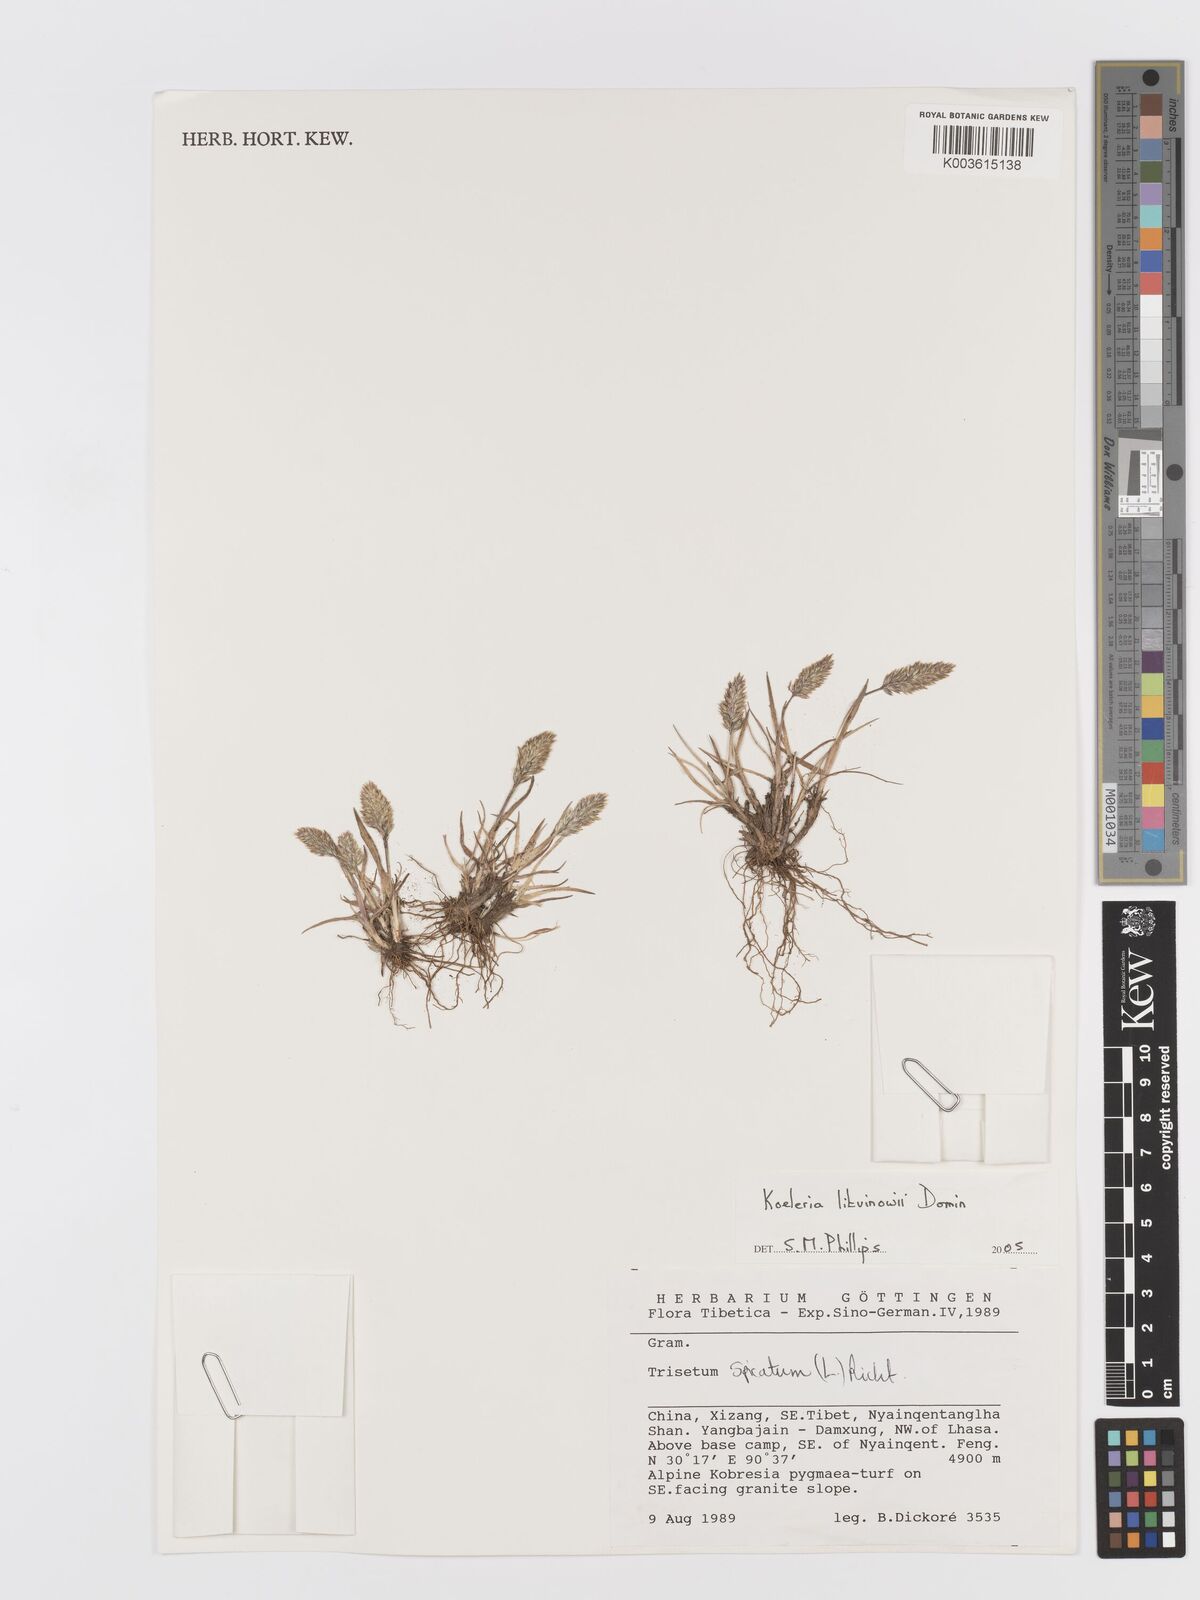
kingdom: Plantae
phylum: Tracheophyta
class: Liliopsida
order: Poales
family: Poaceae
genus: Koeleria
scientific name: Koeleria argentea
